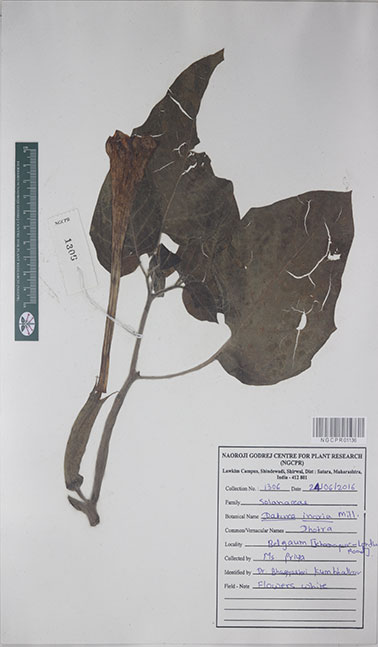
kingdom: Plantae
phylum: Tracheophyta
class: Magnoliopsida
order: Solanales
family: Solanaceae
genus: Datura
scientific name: Datura innoxia
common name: Downy thorn-apple
